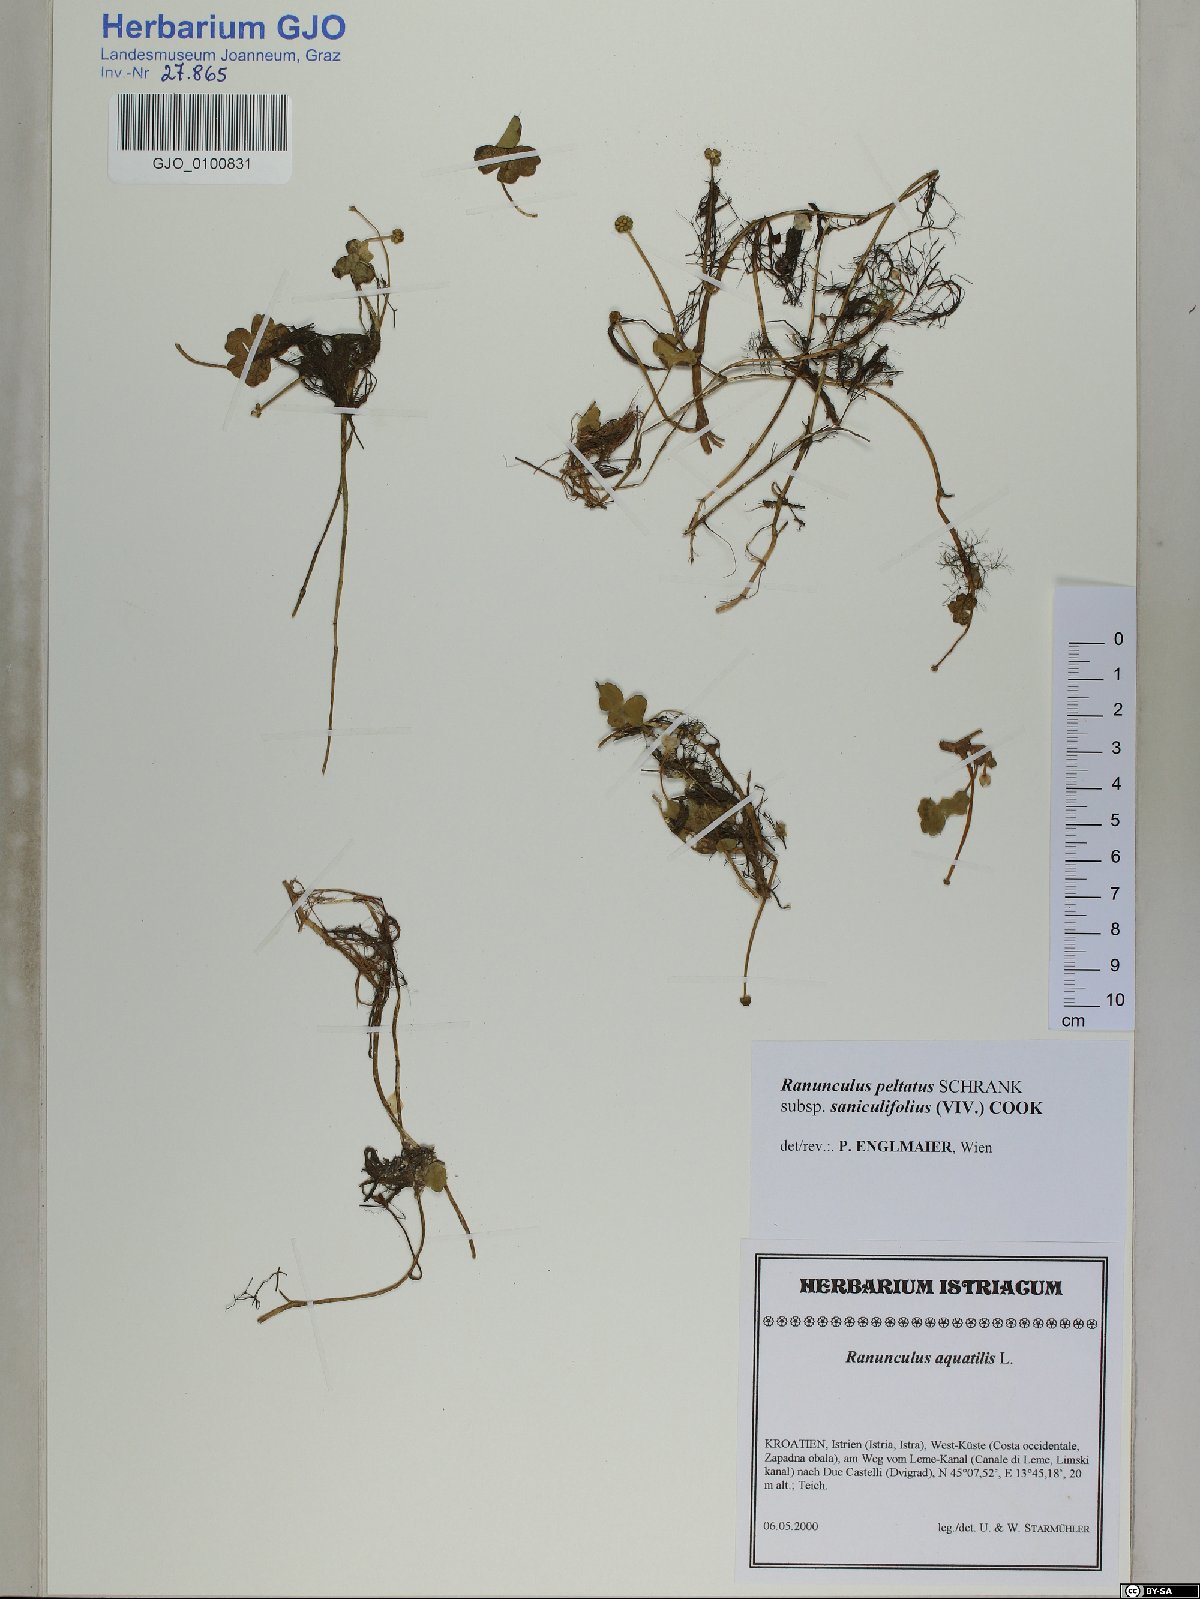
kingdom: Plantae
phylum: Tracheophyta
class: Magnoliopsida
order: Ranunculales
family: Ranunculaceae
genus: Ranunculus
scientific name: Ranunculus peltatus
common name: Pond water-crowfoot
